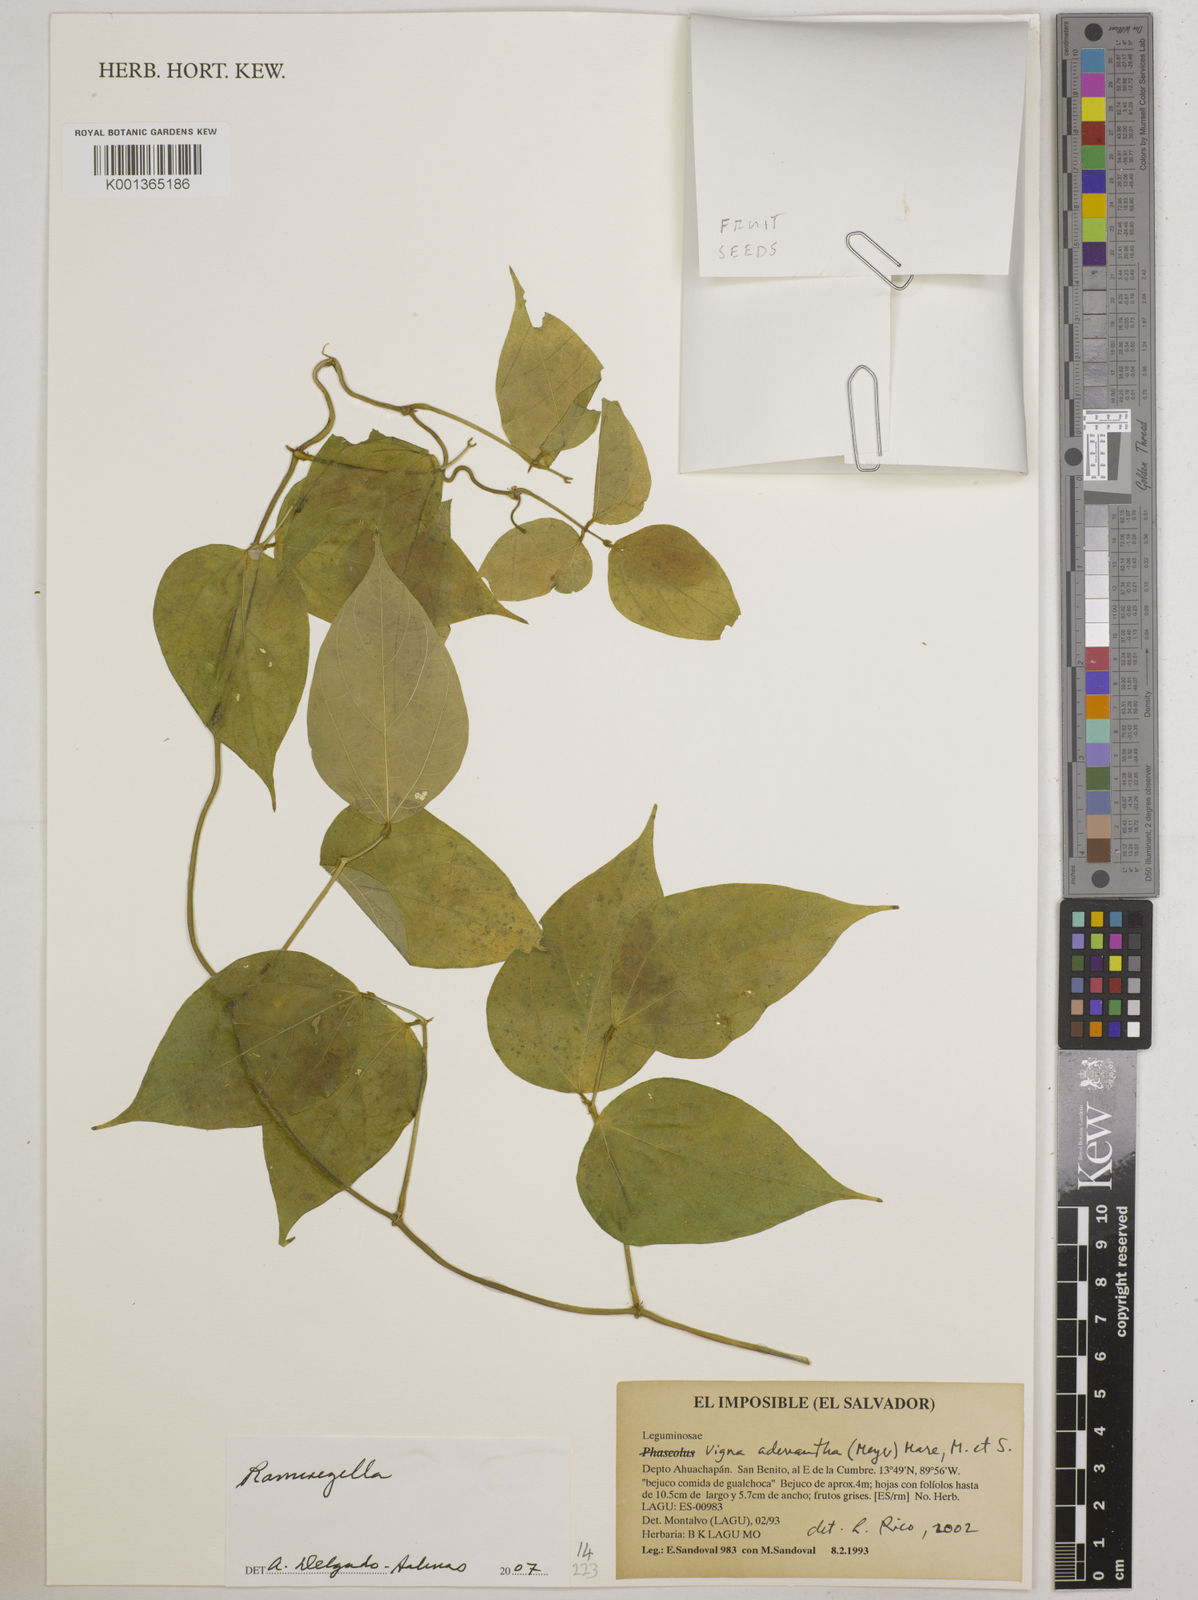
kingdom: Plantae
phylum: Tracheophyta
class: Magnoliopsida
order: Fabales
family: Fabaceae
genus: Ramirezella
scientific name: Ramirezella
